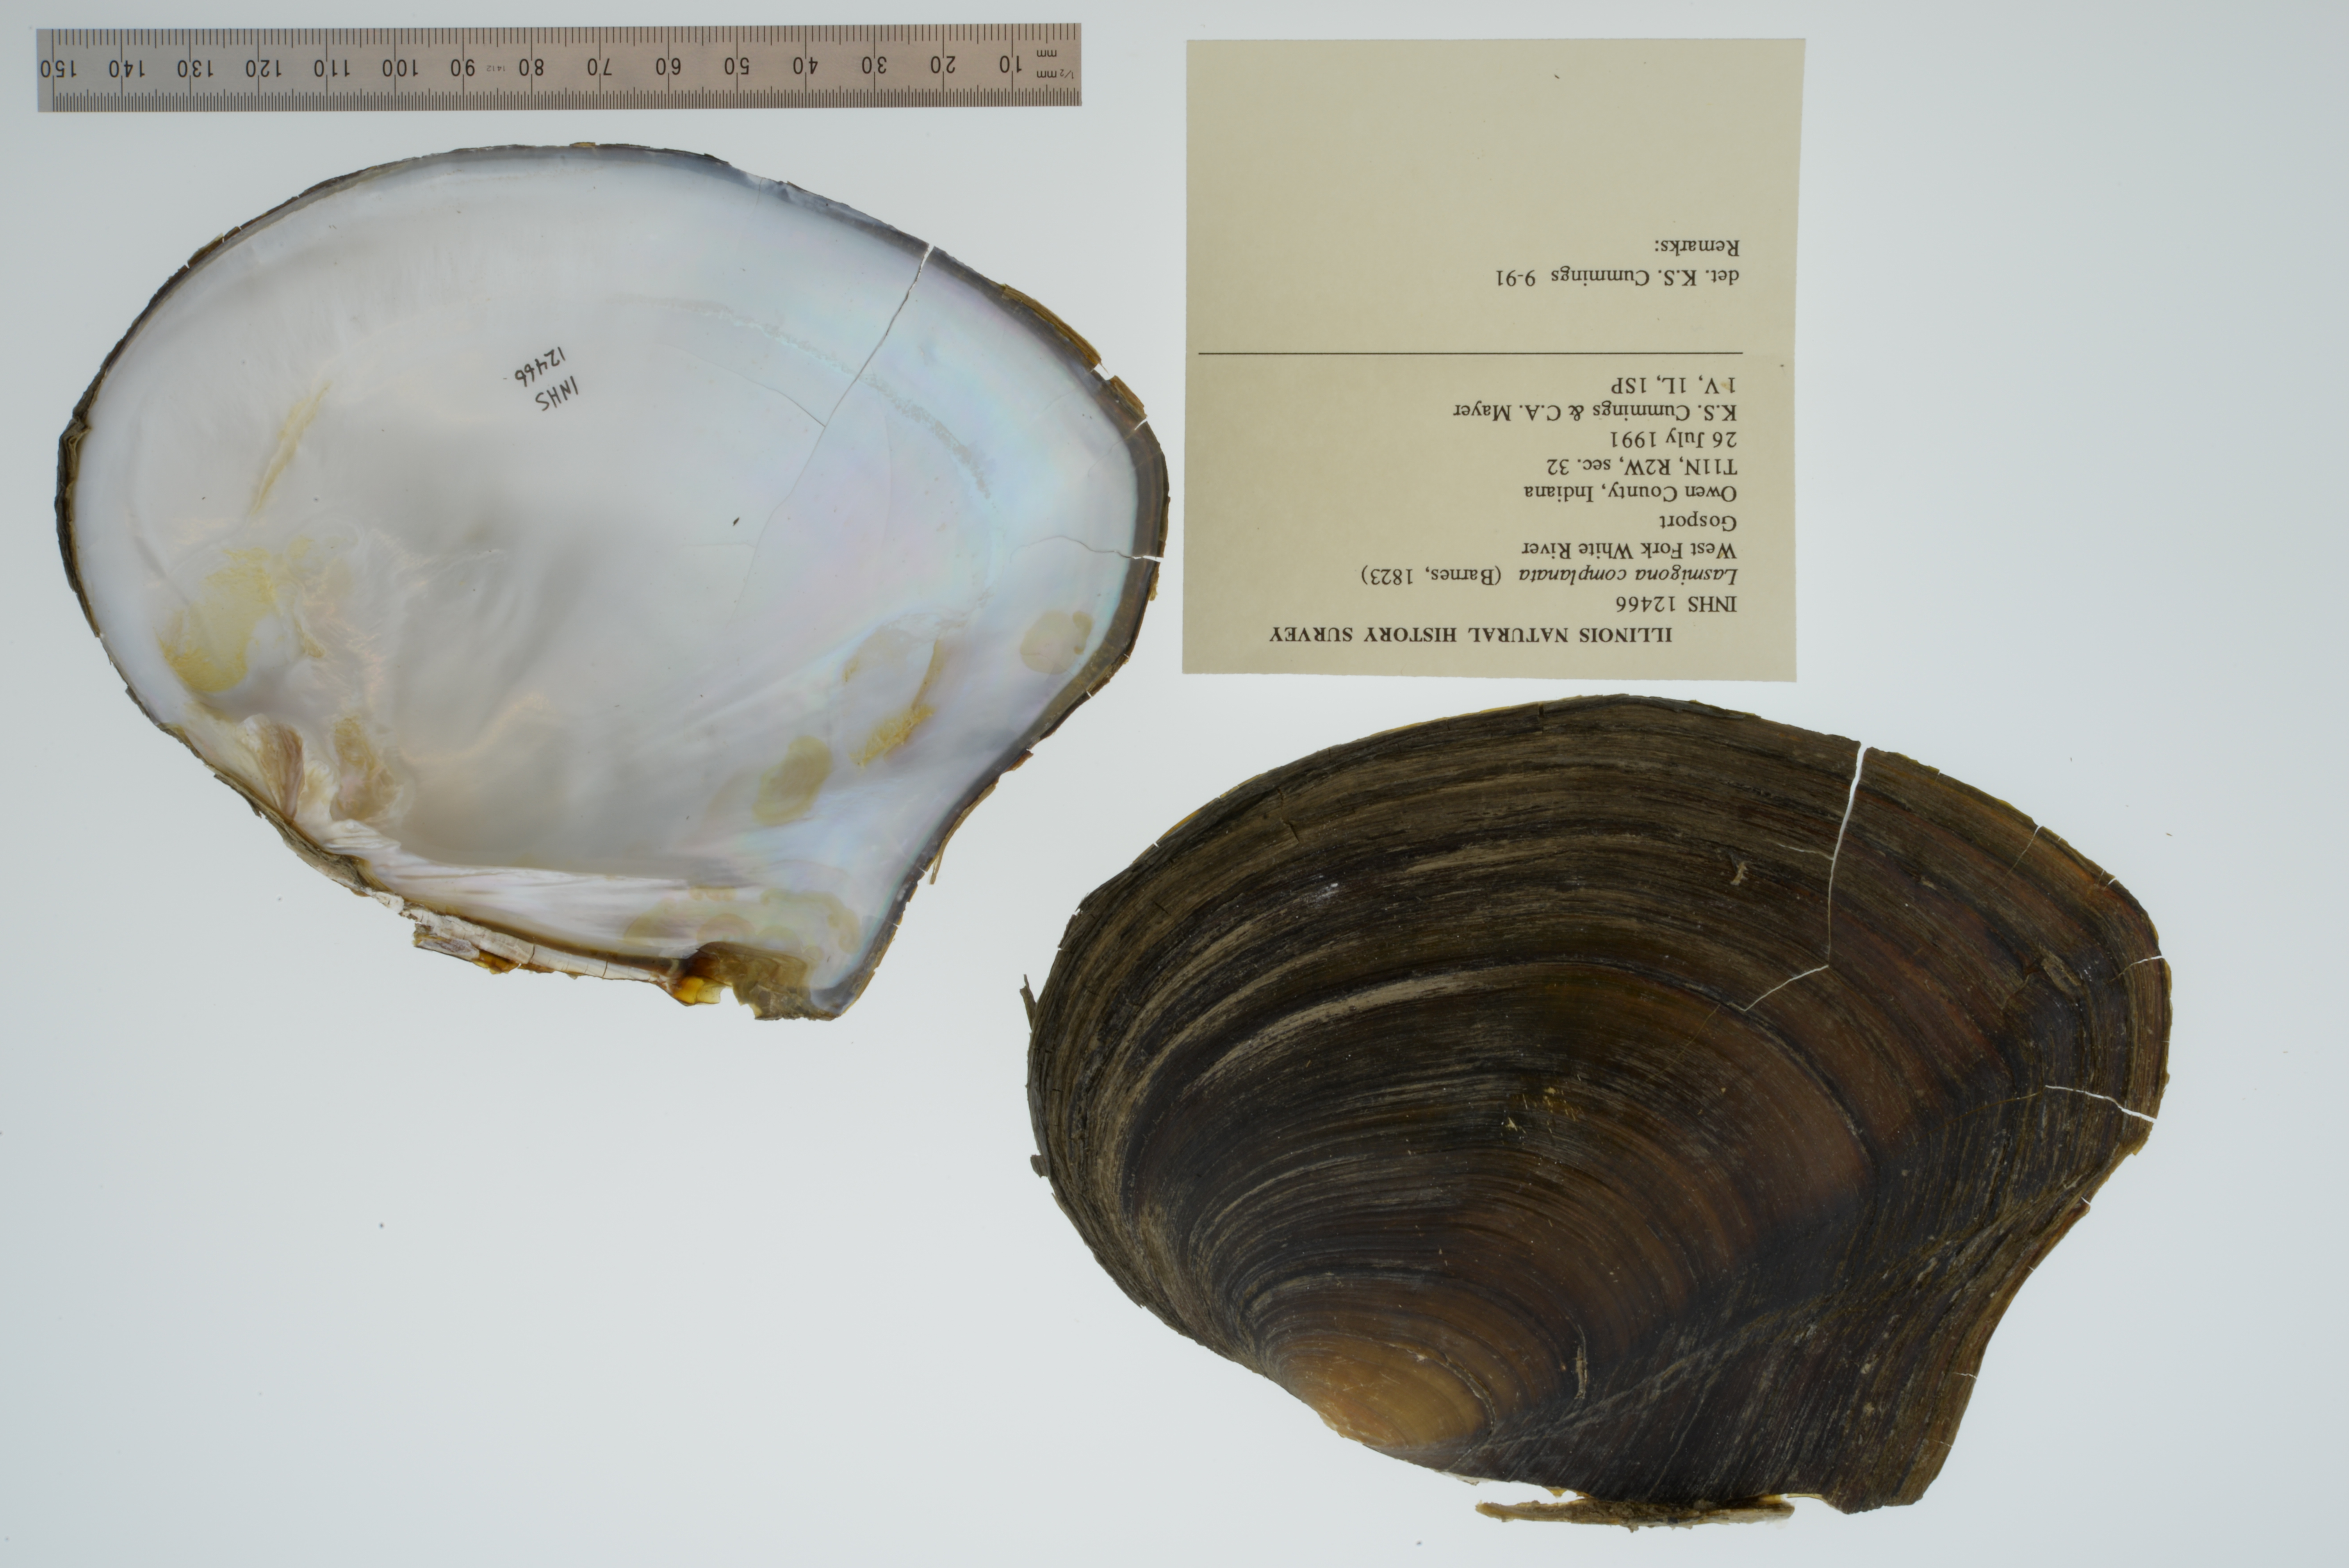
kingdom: Animalia
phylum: Mollusca
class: Bivalvia
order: Unionida
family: Unionidae
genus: Lasmigona
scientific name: Lasmigona complanata
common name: White heelsplitter
